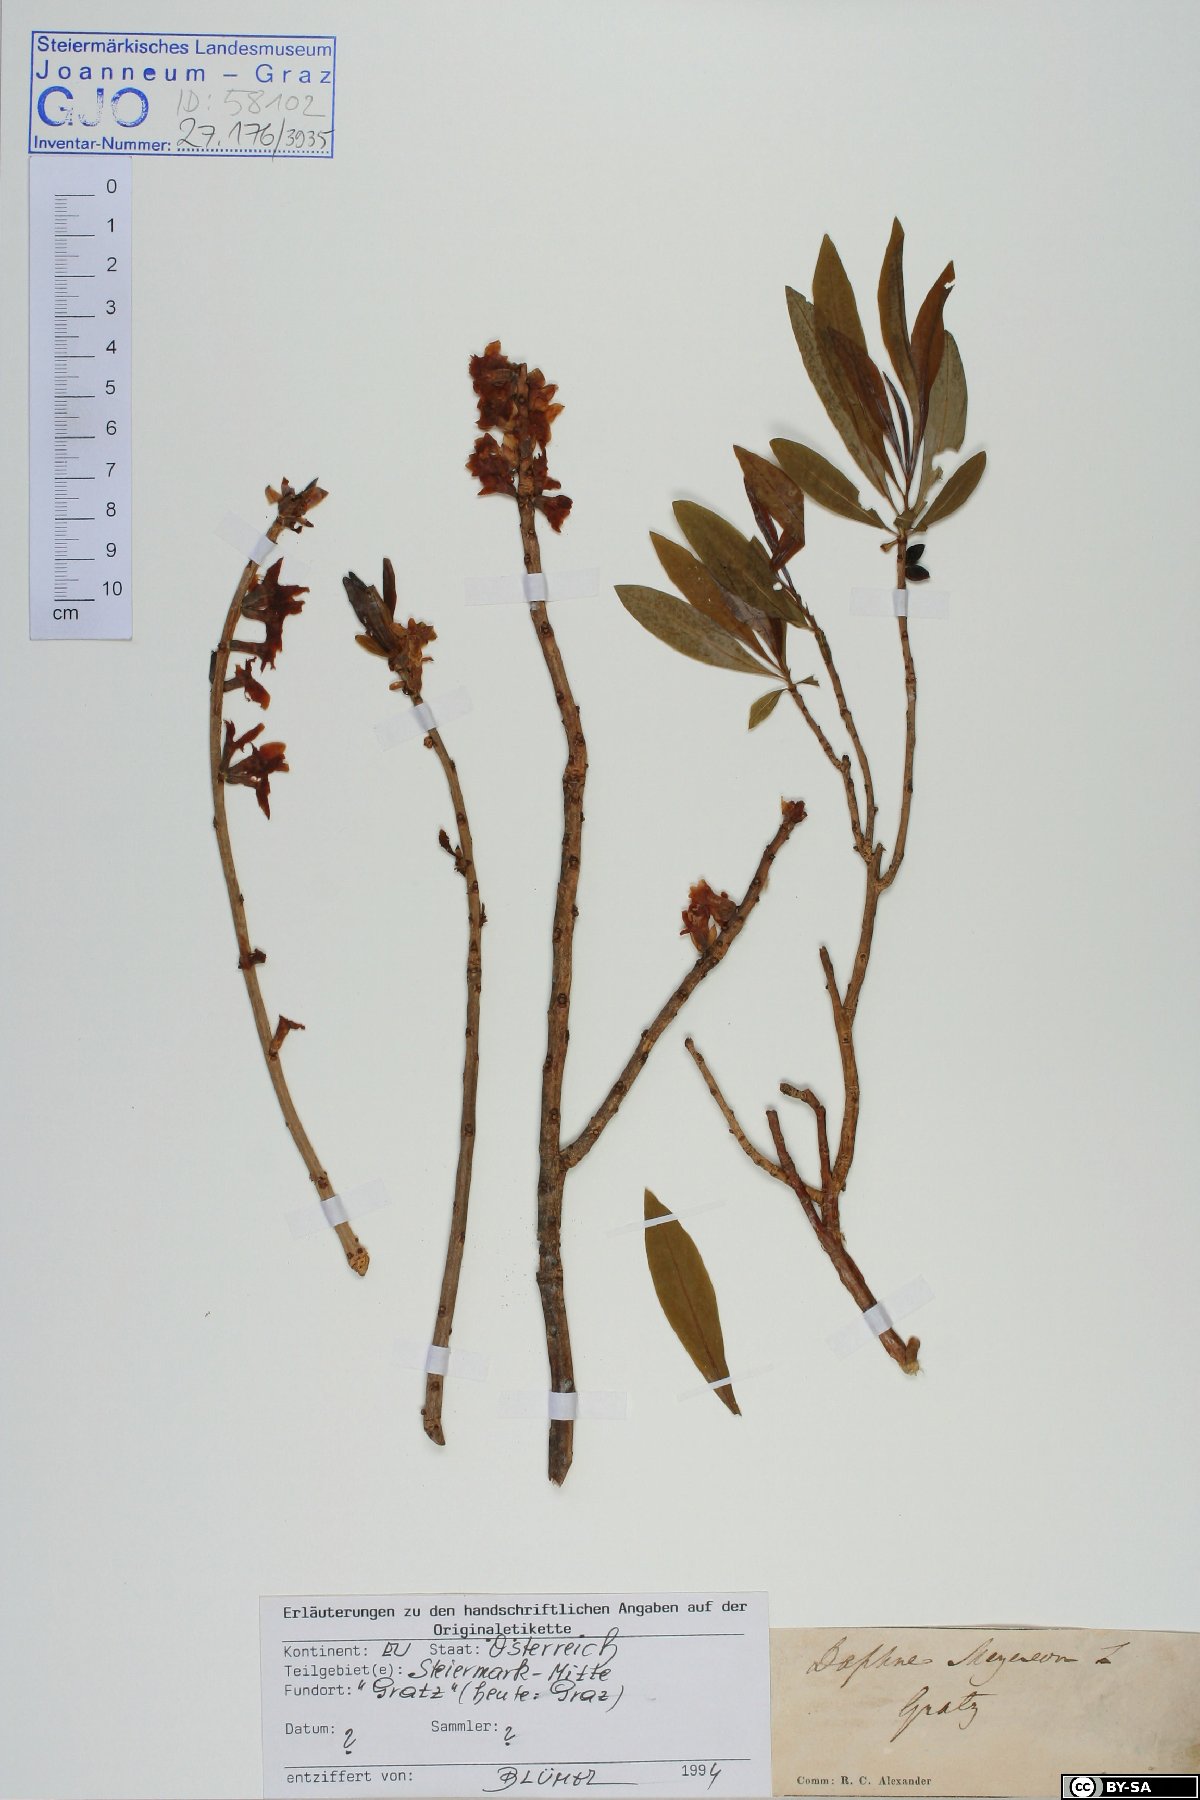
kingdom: Plantae
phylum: Tracheophyta
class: Magnoliopsida
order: Malvales
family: Thymelaeaceae
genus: Daphne
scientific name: Daphne mezereum
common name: Mezereon
